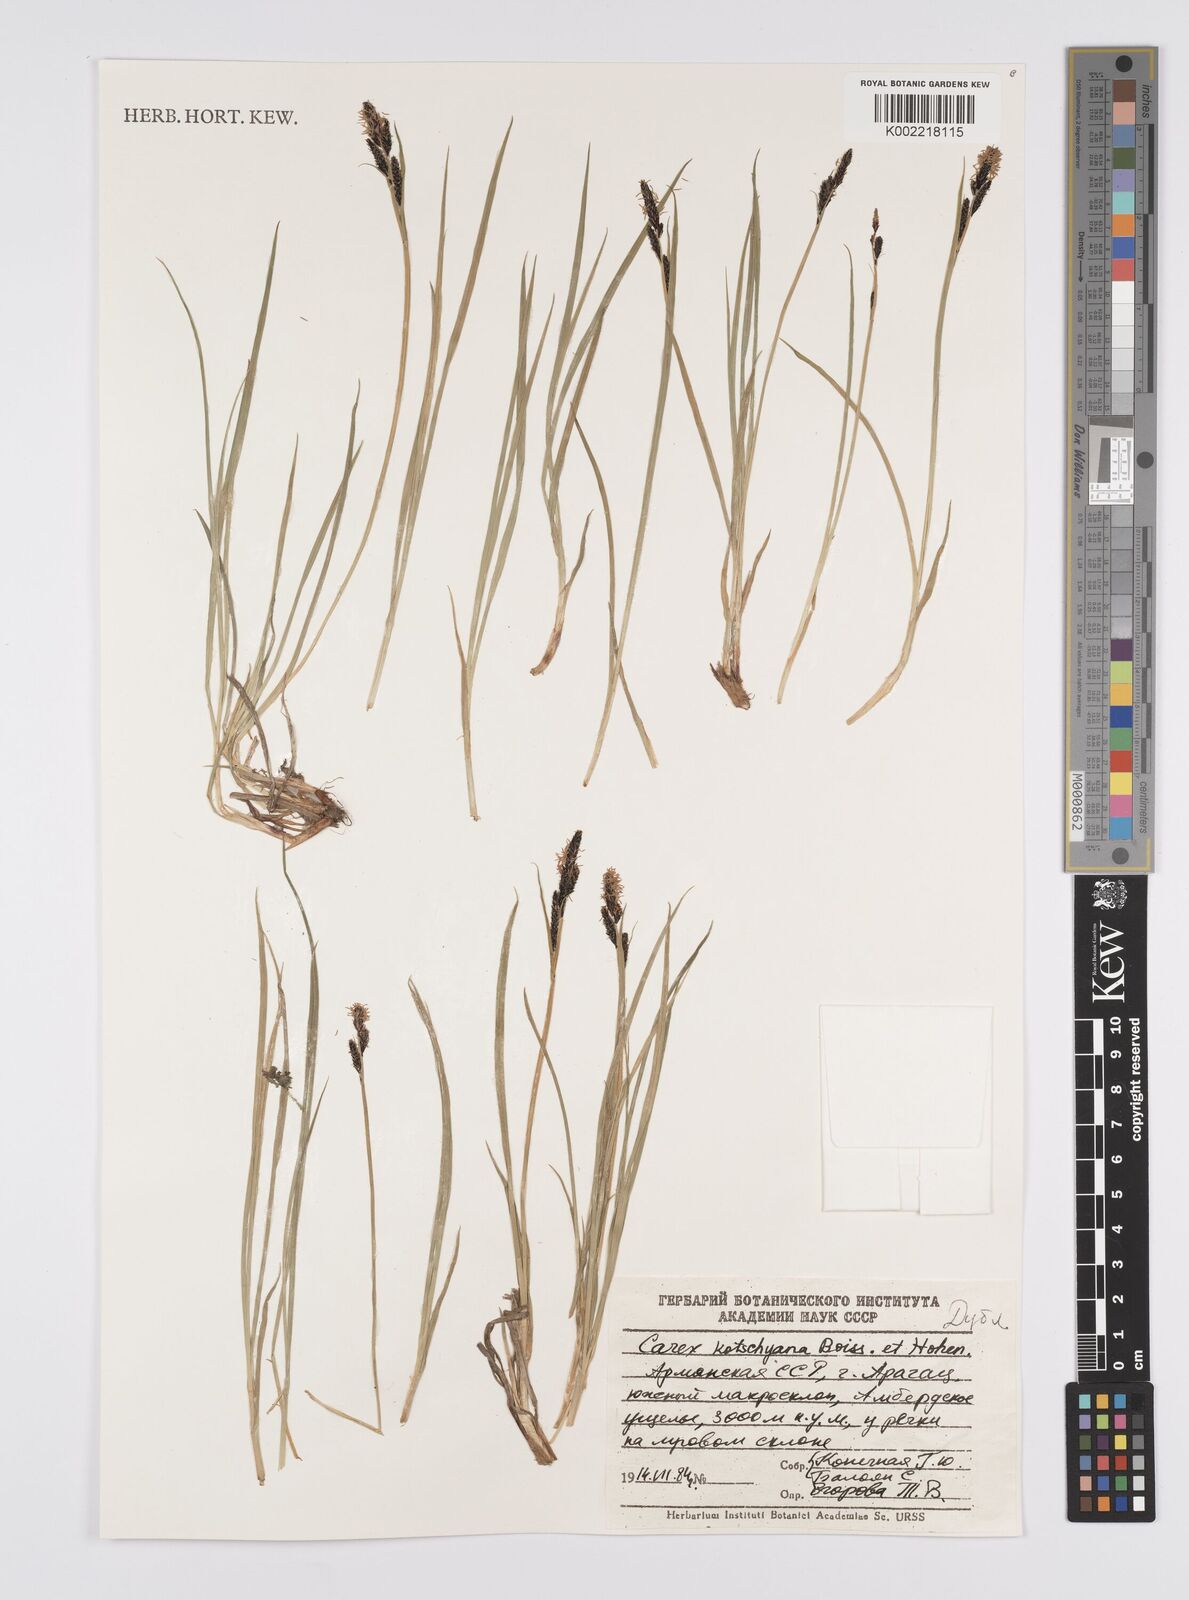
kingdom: Plantae
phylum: Tracheophyta
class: Liliopsida
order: Poales
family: Cyperaceae
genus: Carex
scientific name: Carex orbicularis
